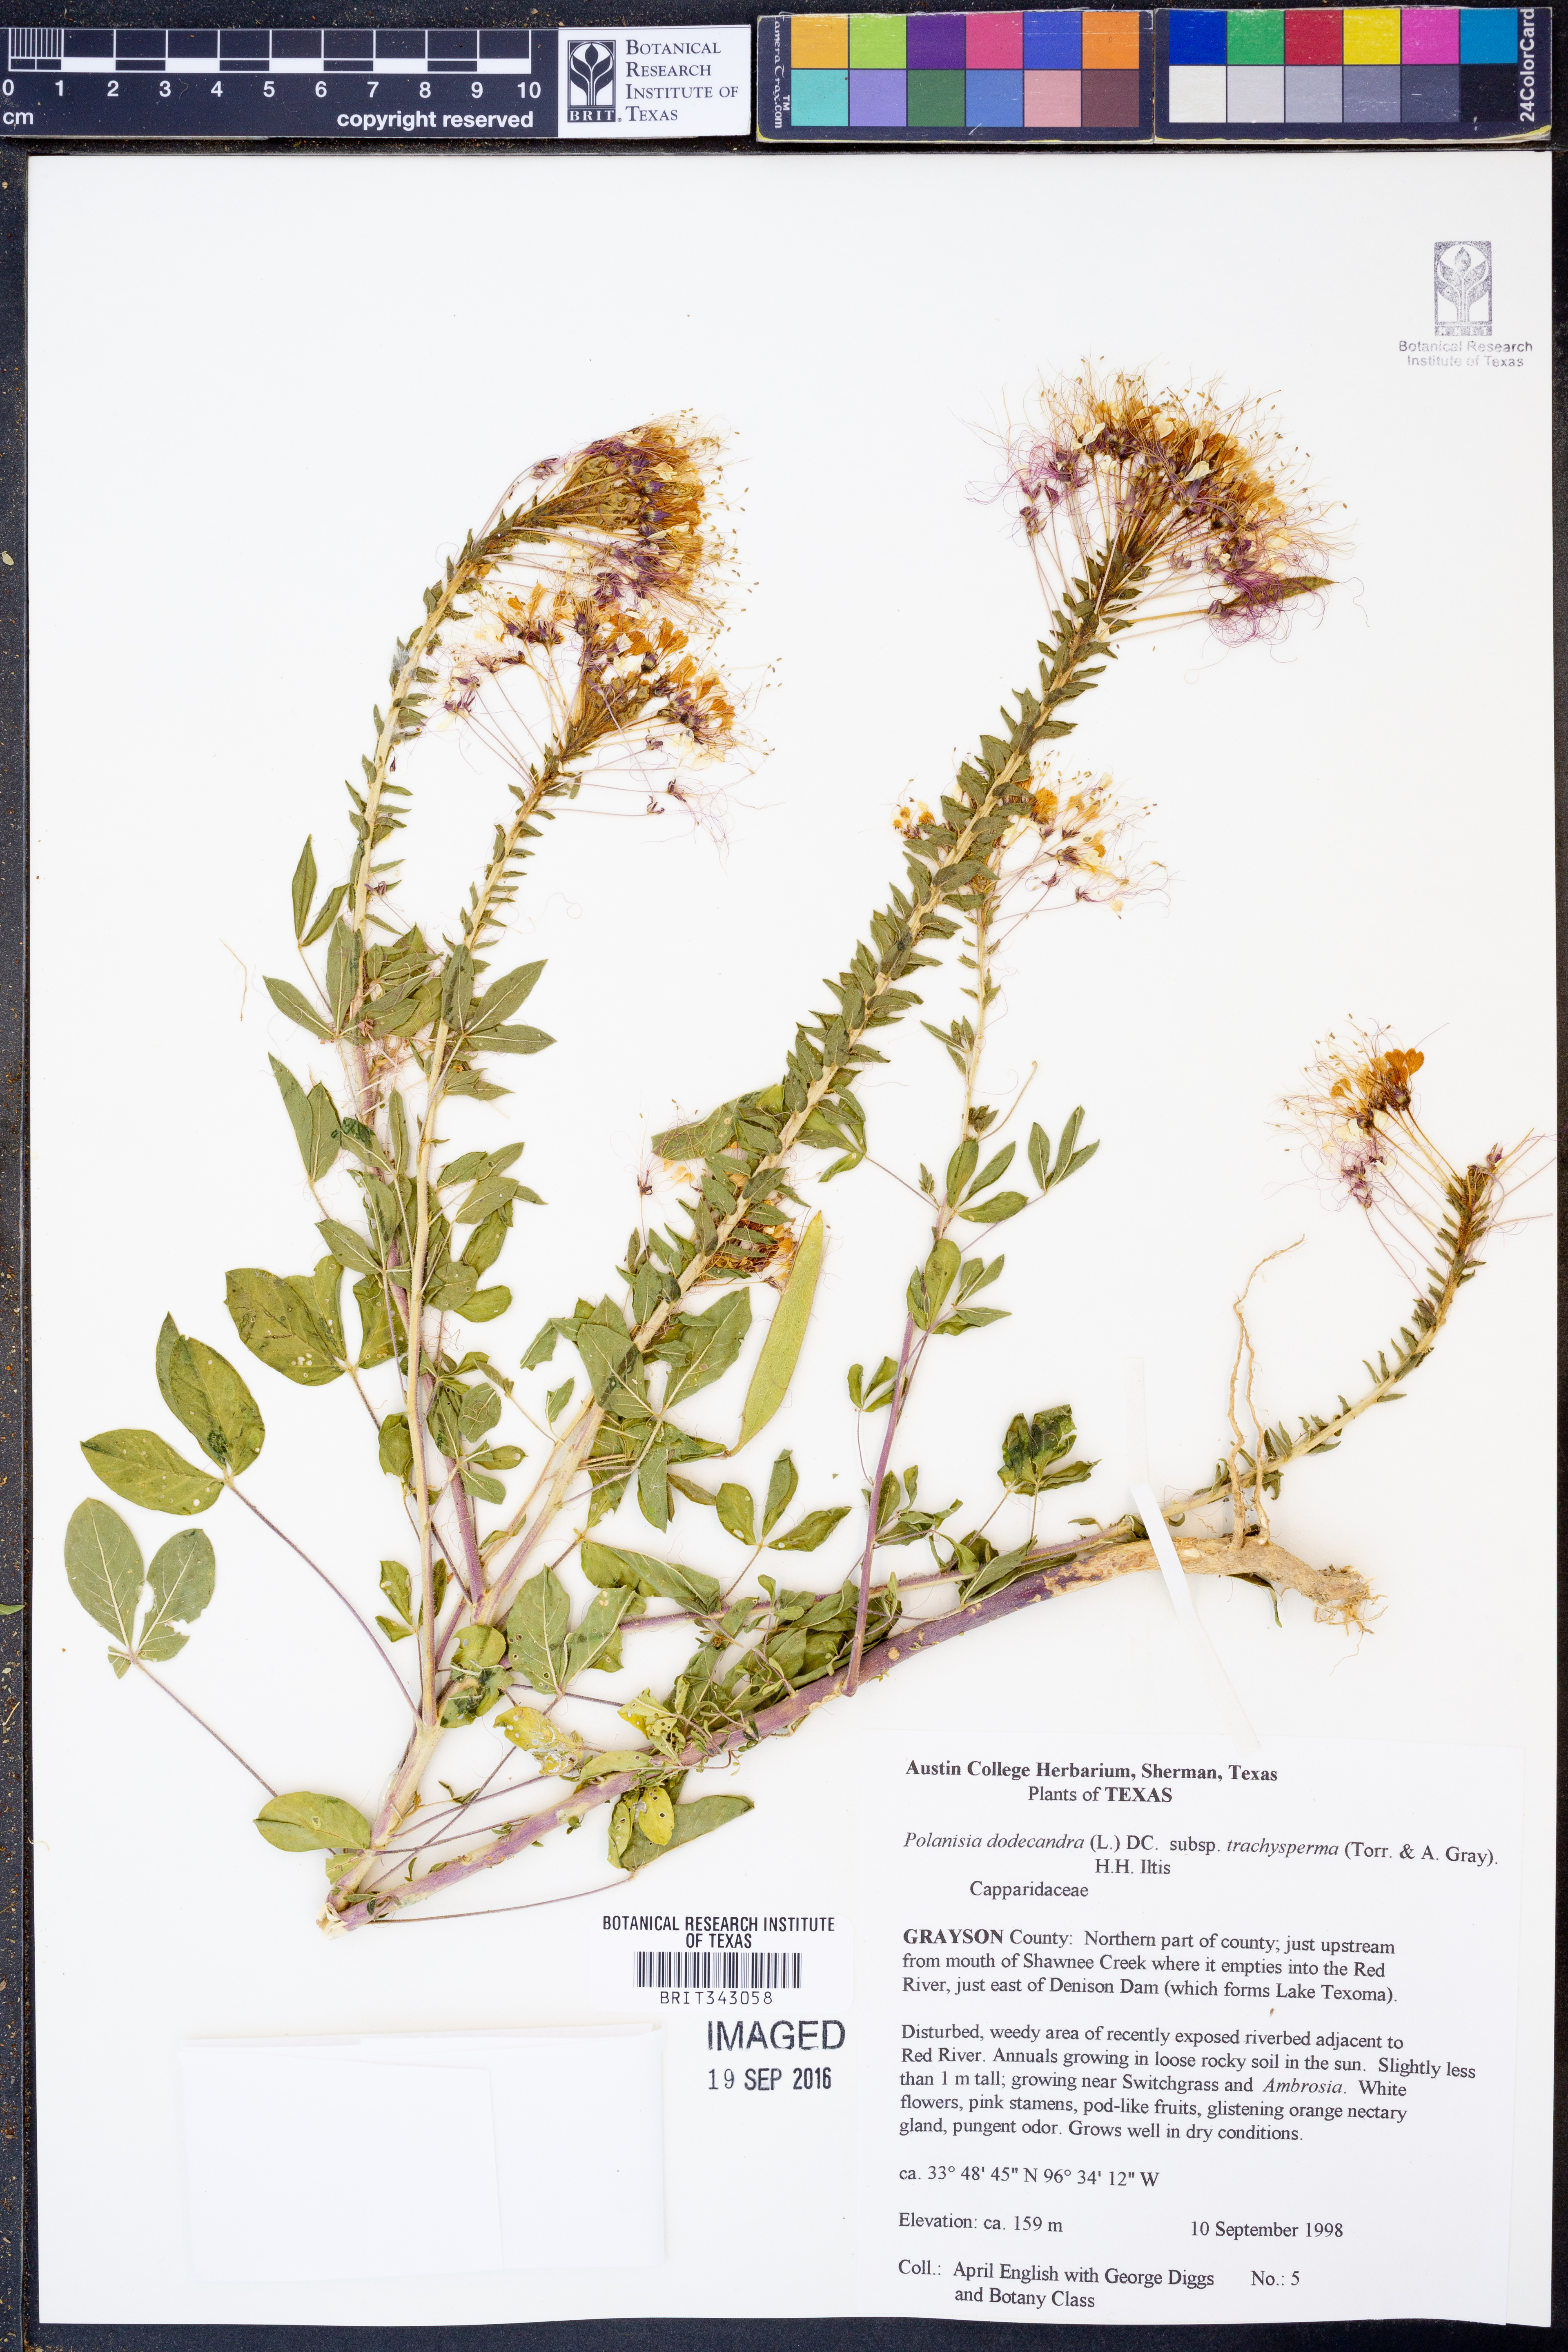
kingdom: Plantae
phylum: Tracheophyta
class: Magnoliopsida
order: Brassicales
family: Cleomaceae
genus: Polanisia
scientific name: Polanisia trachysperma
